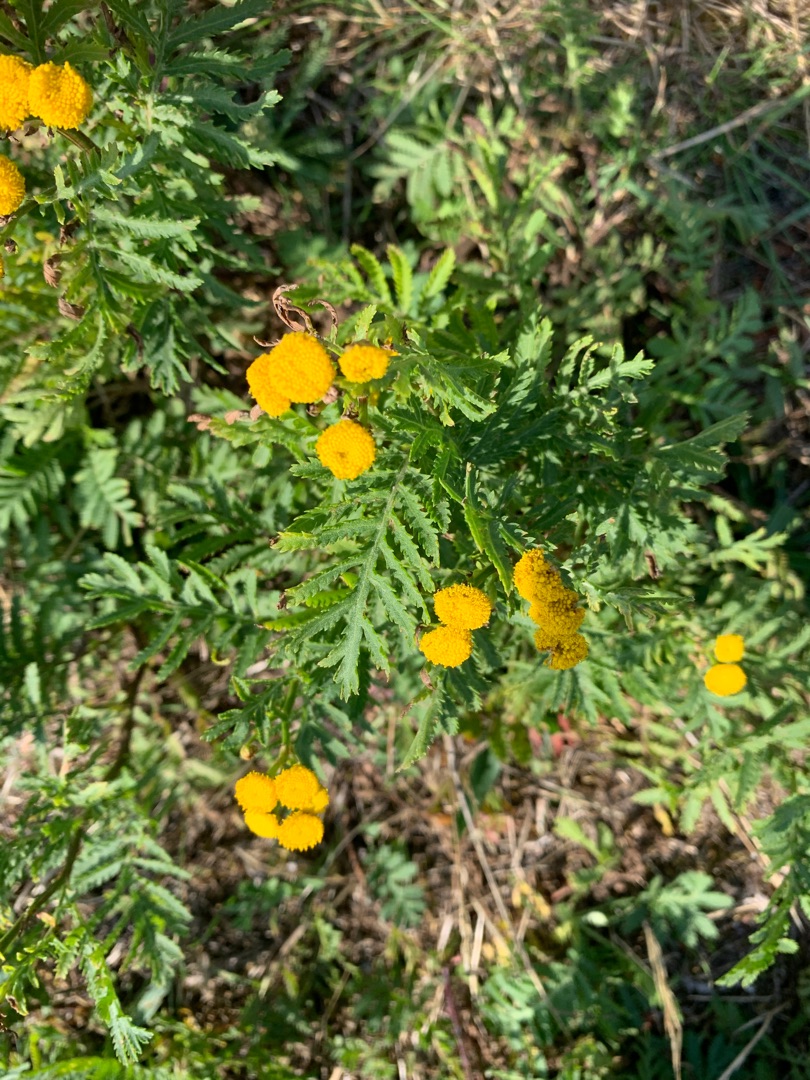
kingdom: Plantae
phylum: Tracheophyta
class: Magnoliopsida
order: Asterales
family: Asteraceae
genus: Tanacetum
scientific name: Tanacetum vulgare
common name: Rejnfan
